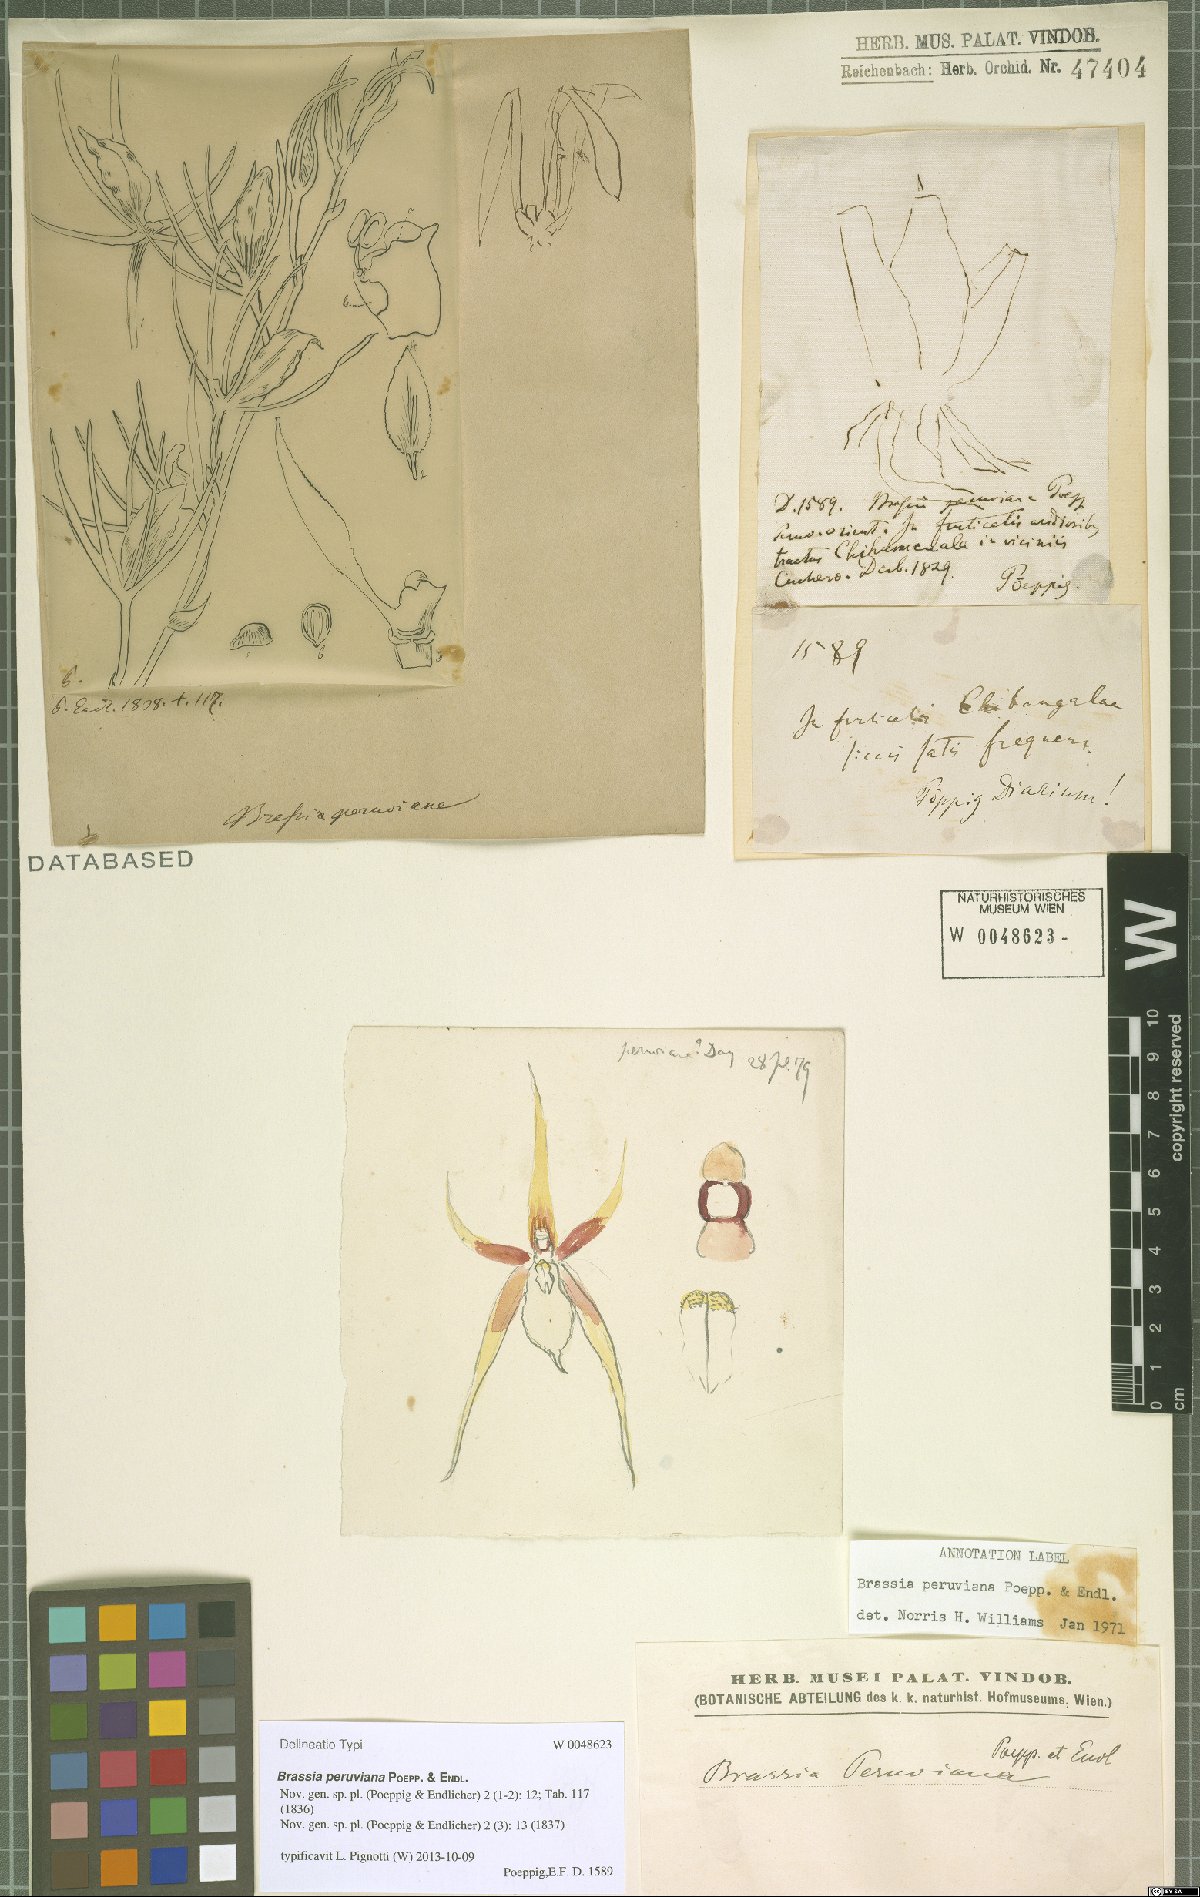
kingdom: Plantae
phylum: Tracheophyta
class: Liliopsida
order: Asparagales
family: Orchidaceae
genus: Brassia
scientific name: Brassia peruviana
